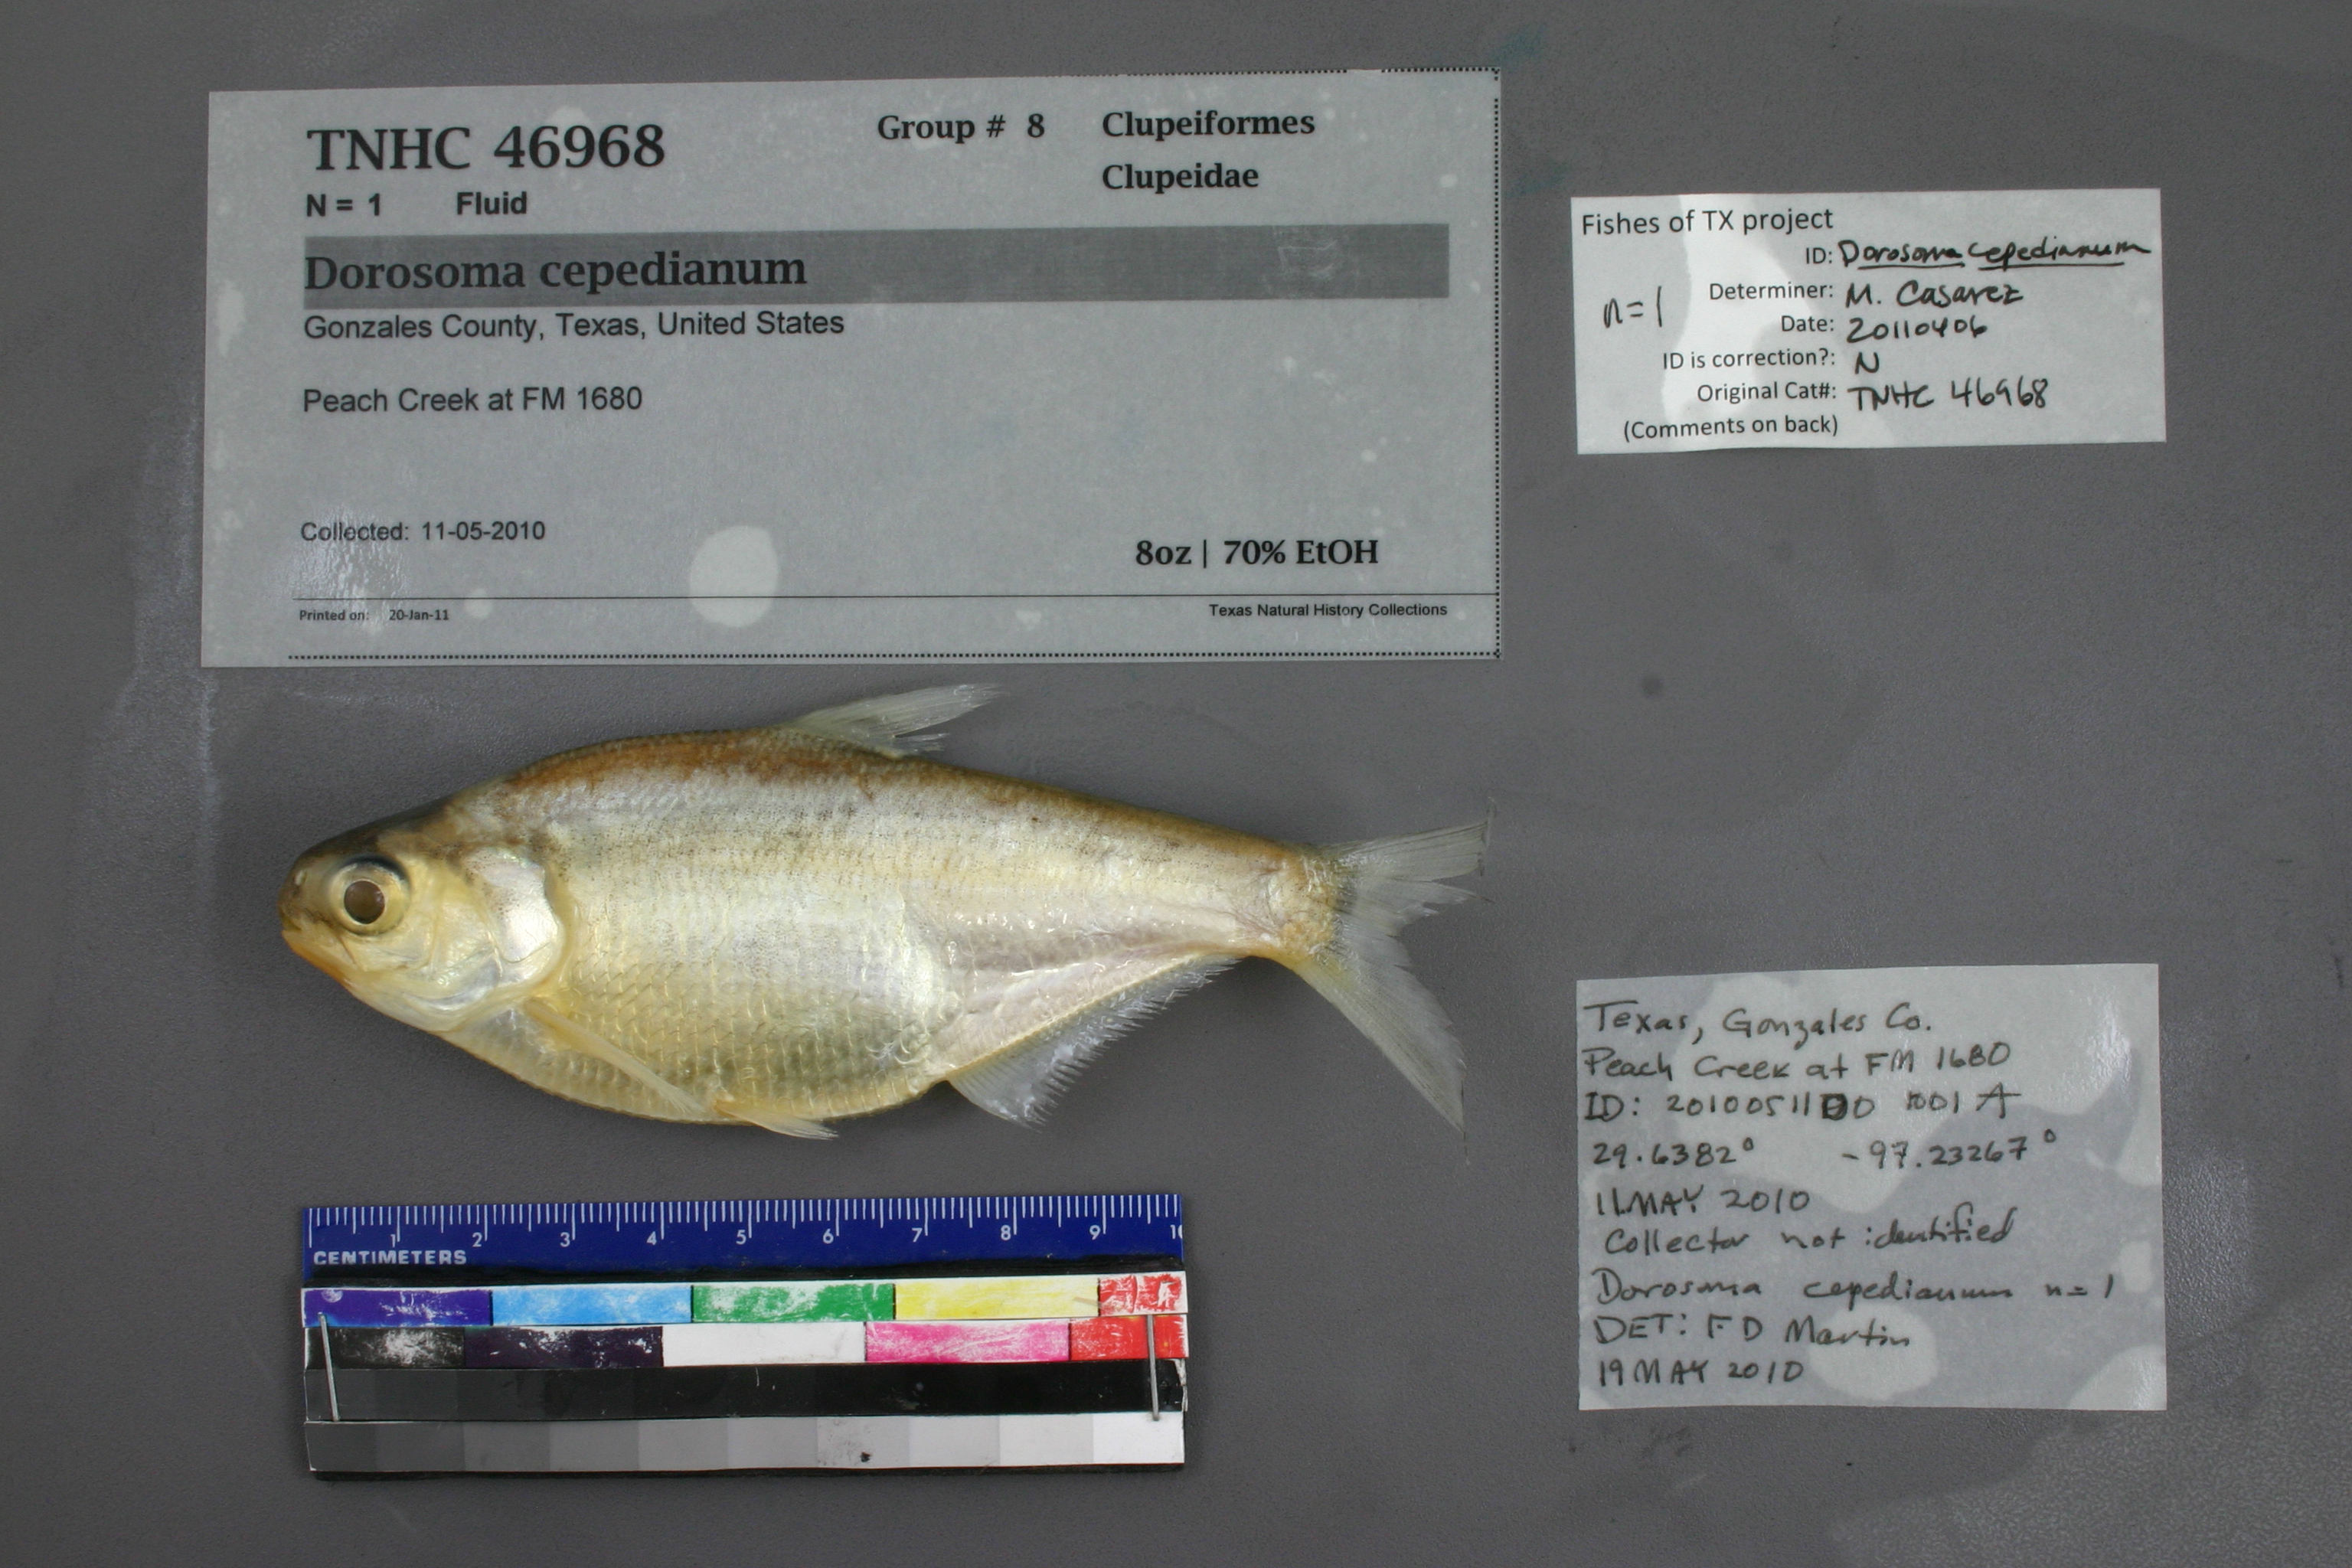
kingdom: Animalia
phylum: Chordata
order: Clupeiformes
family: Clupeidae
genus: Dorosoma
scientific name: Dorosoma cepedianum
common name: Gizzard shad
